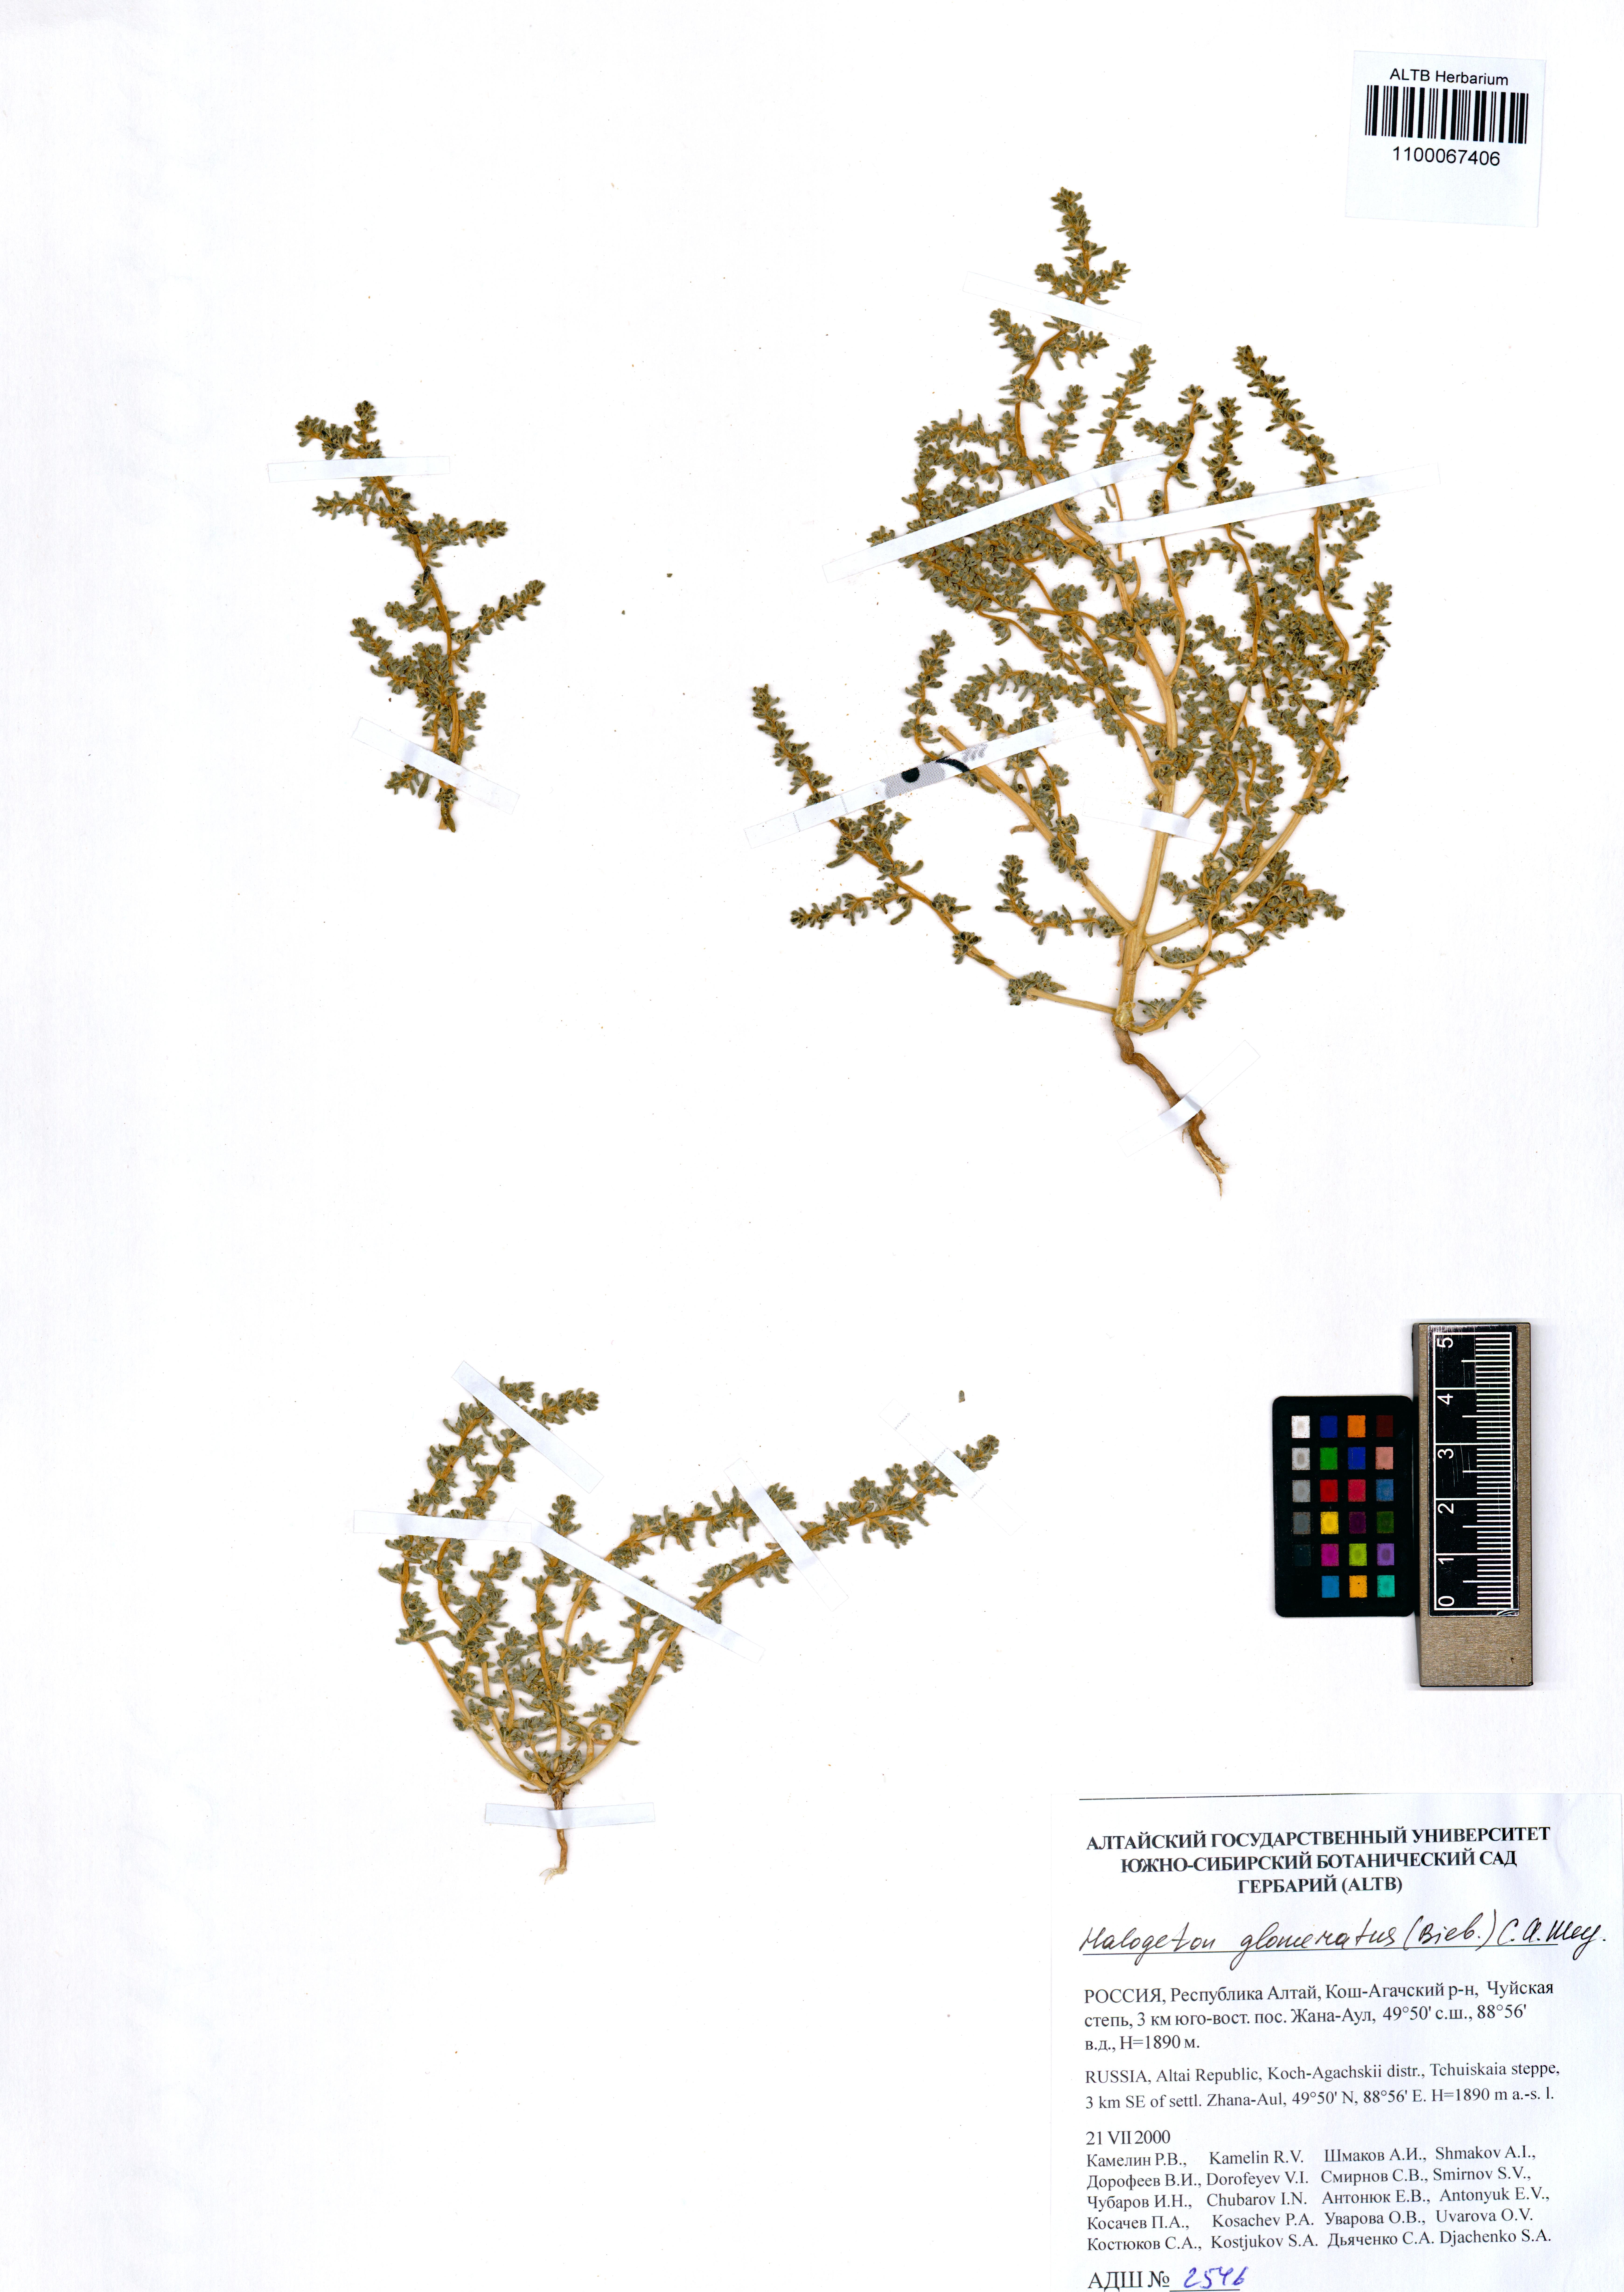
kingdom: Plantae
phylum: Tracheophyta
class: Magnoliopsida
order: Caryophyllales
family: Amaranthaceae
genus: Halogeton
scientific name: Halogeton glomeratus
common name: Saltlover
